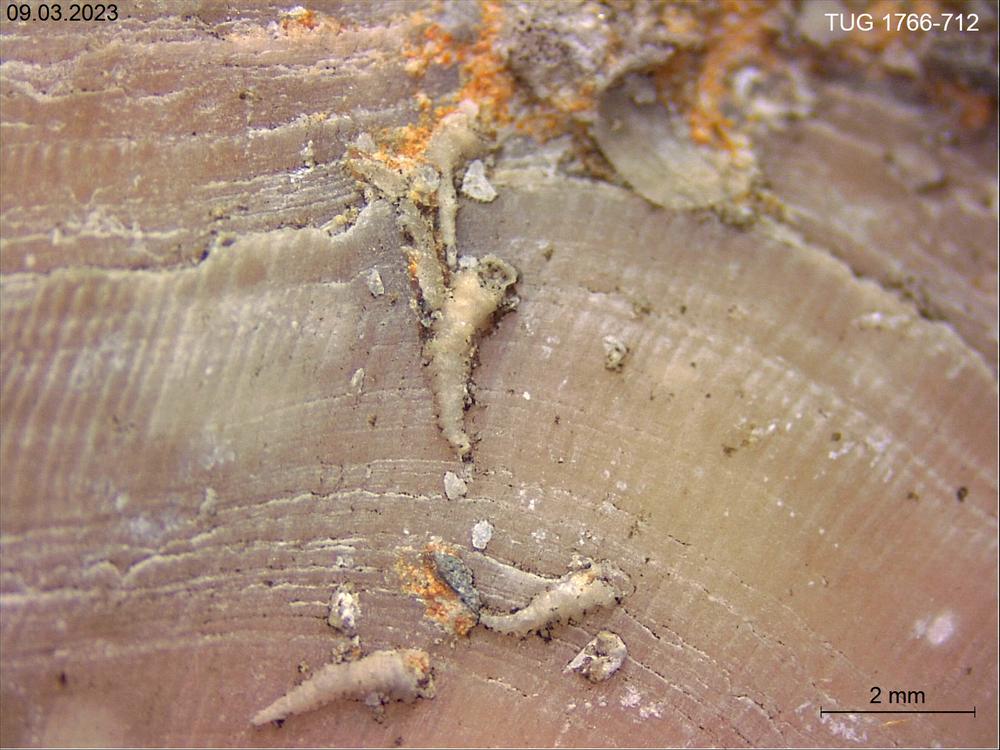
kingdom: Animalia
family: Cornulitidae
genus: Cornulites
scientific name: Cornulites
